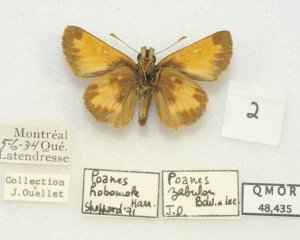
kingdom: Animalia
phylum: Arthropoda
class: Insecta
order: Lepidoptera
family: Hesperiidae
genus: Lon
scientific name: Lon hobomok
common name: Hobomok Skipper
